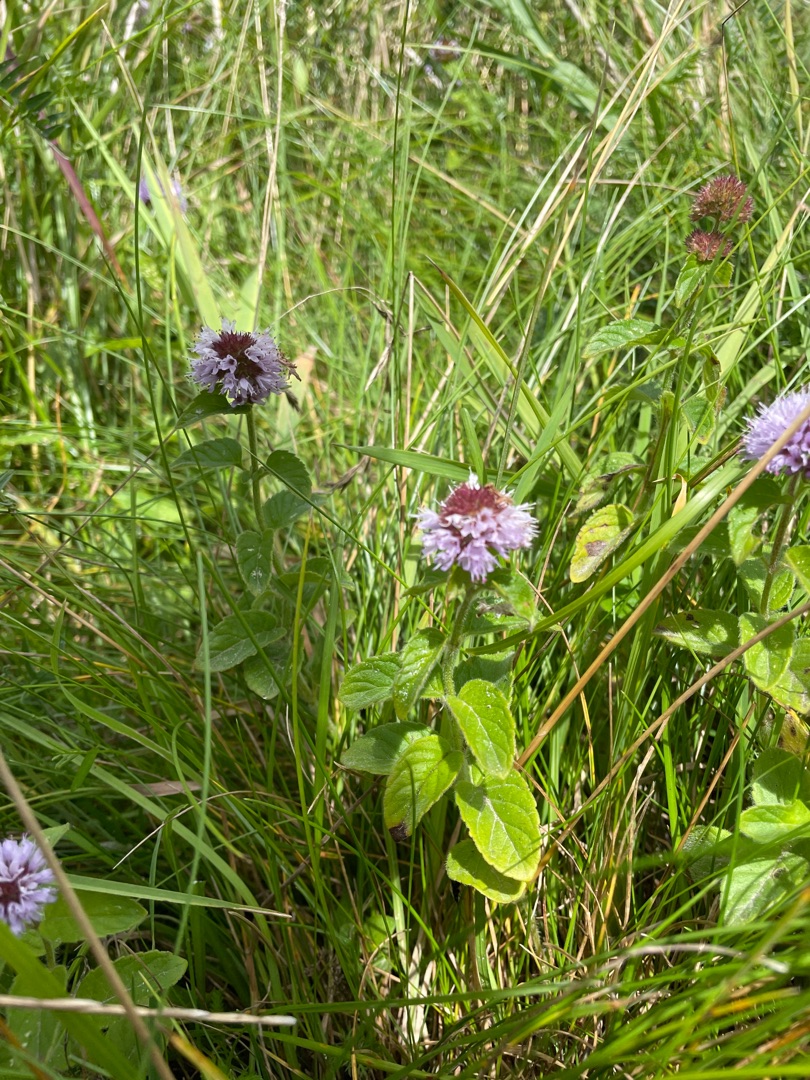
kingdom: Plantae
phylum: Tracheophyta
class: Magnoliopsida
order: Lamiales
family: Lamiaceae
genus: Mentha
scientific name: Mentha aquatica
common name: Vand-mynte
